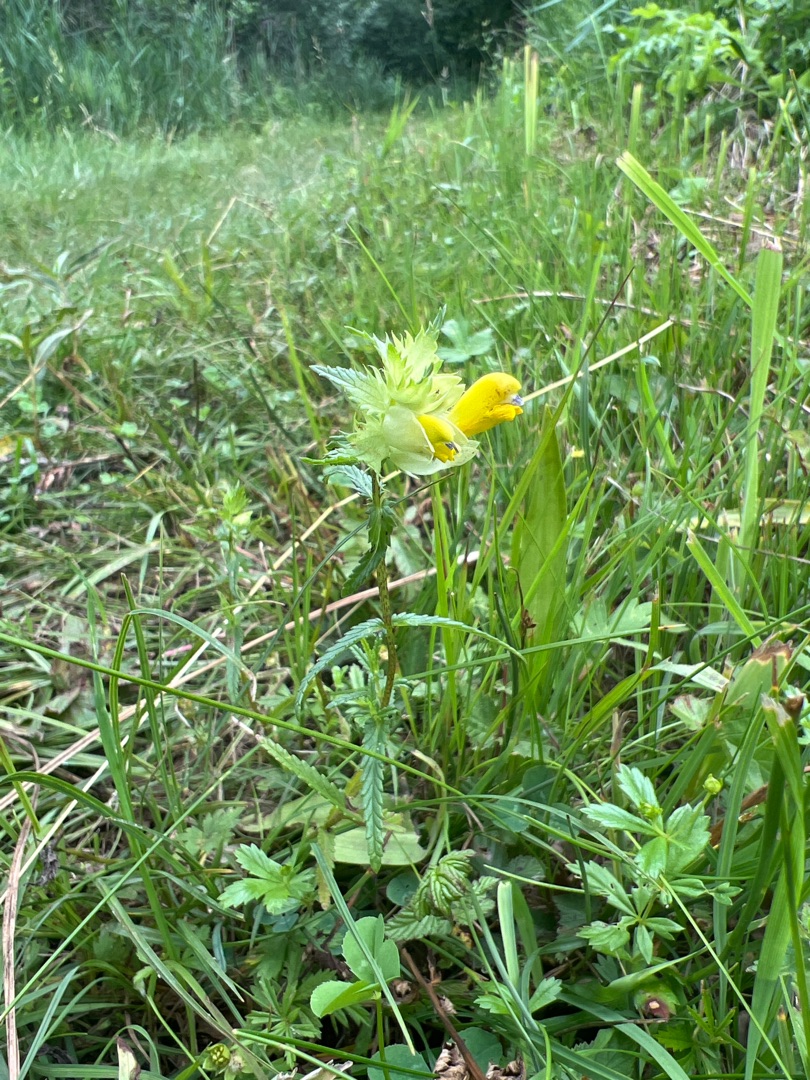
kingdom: Plantae
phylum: Tracheophyta
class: Magnoliopsida
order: Lamiales
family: Orobanchaceae
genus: Rhinanthus
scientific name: Rhinanthus
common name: Stor skjaller
